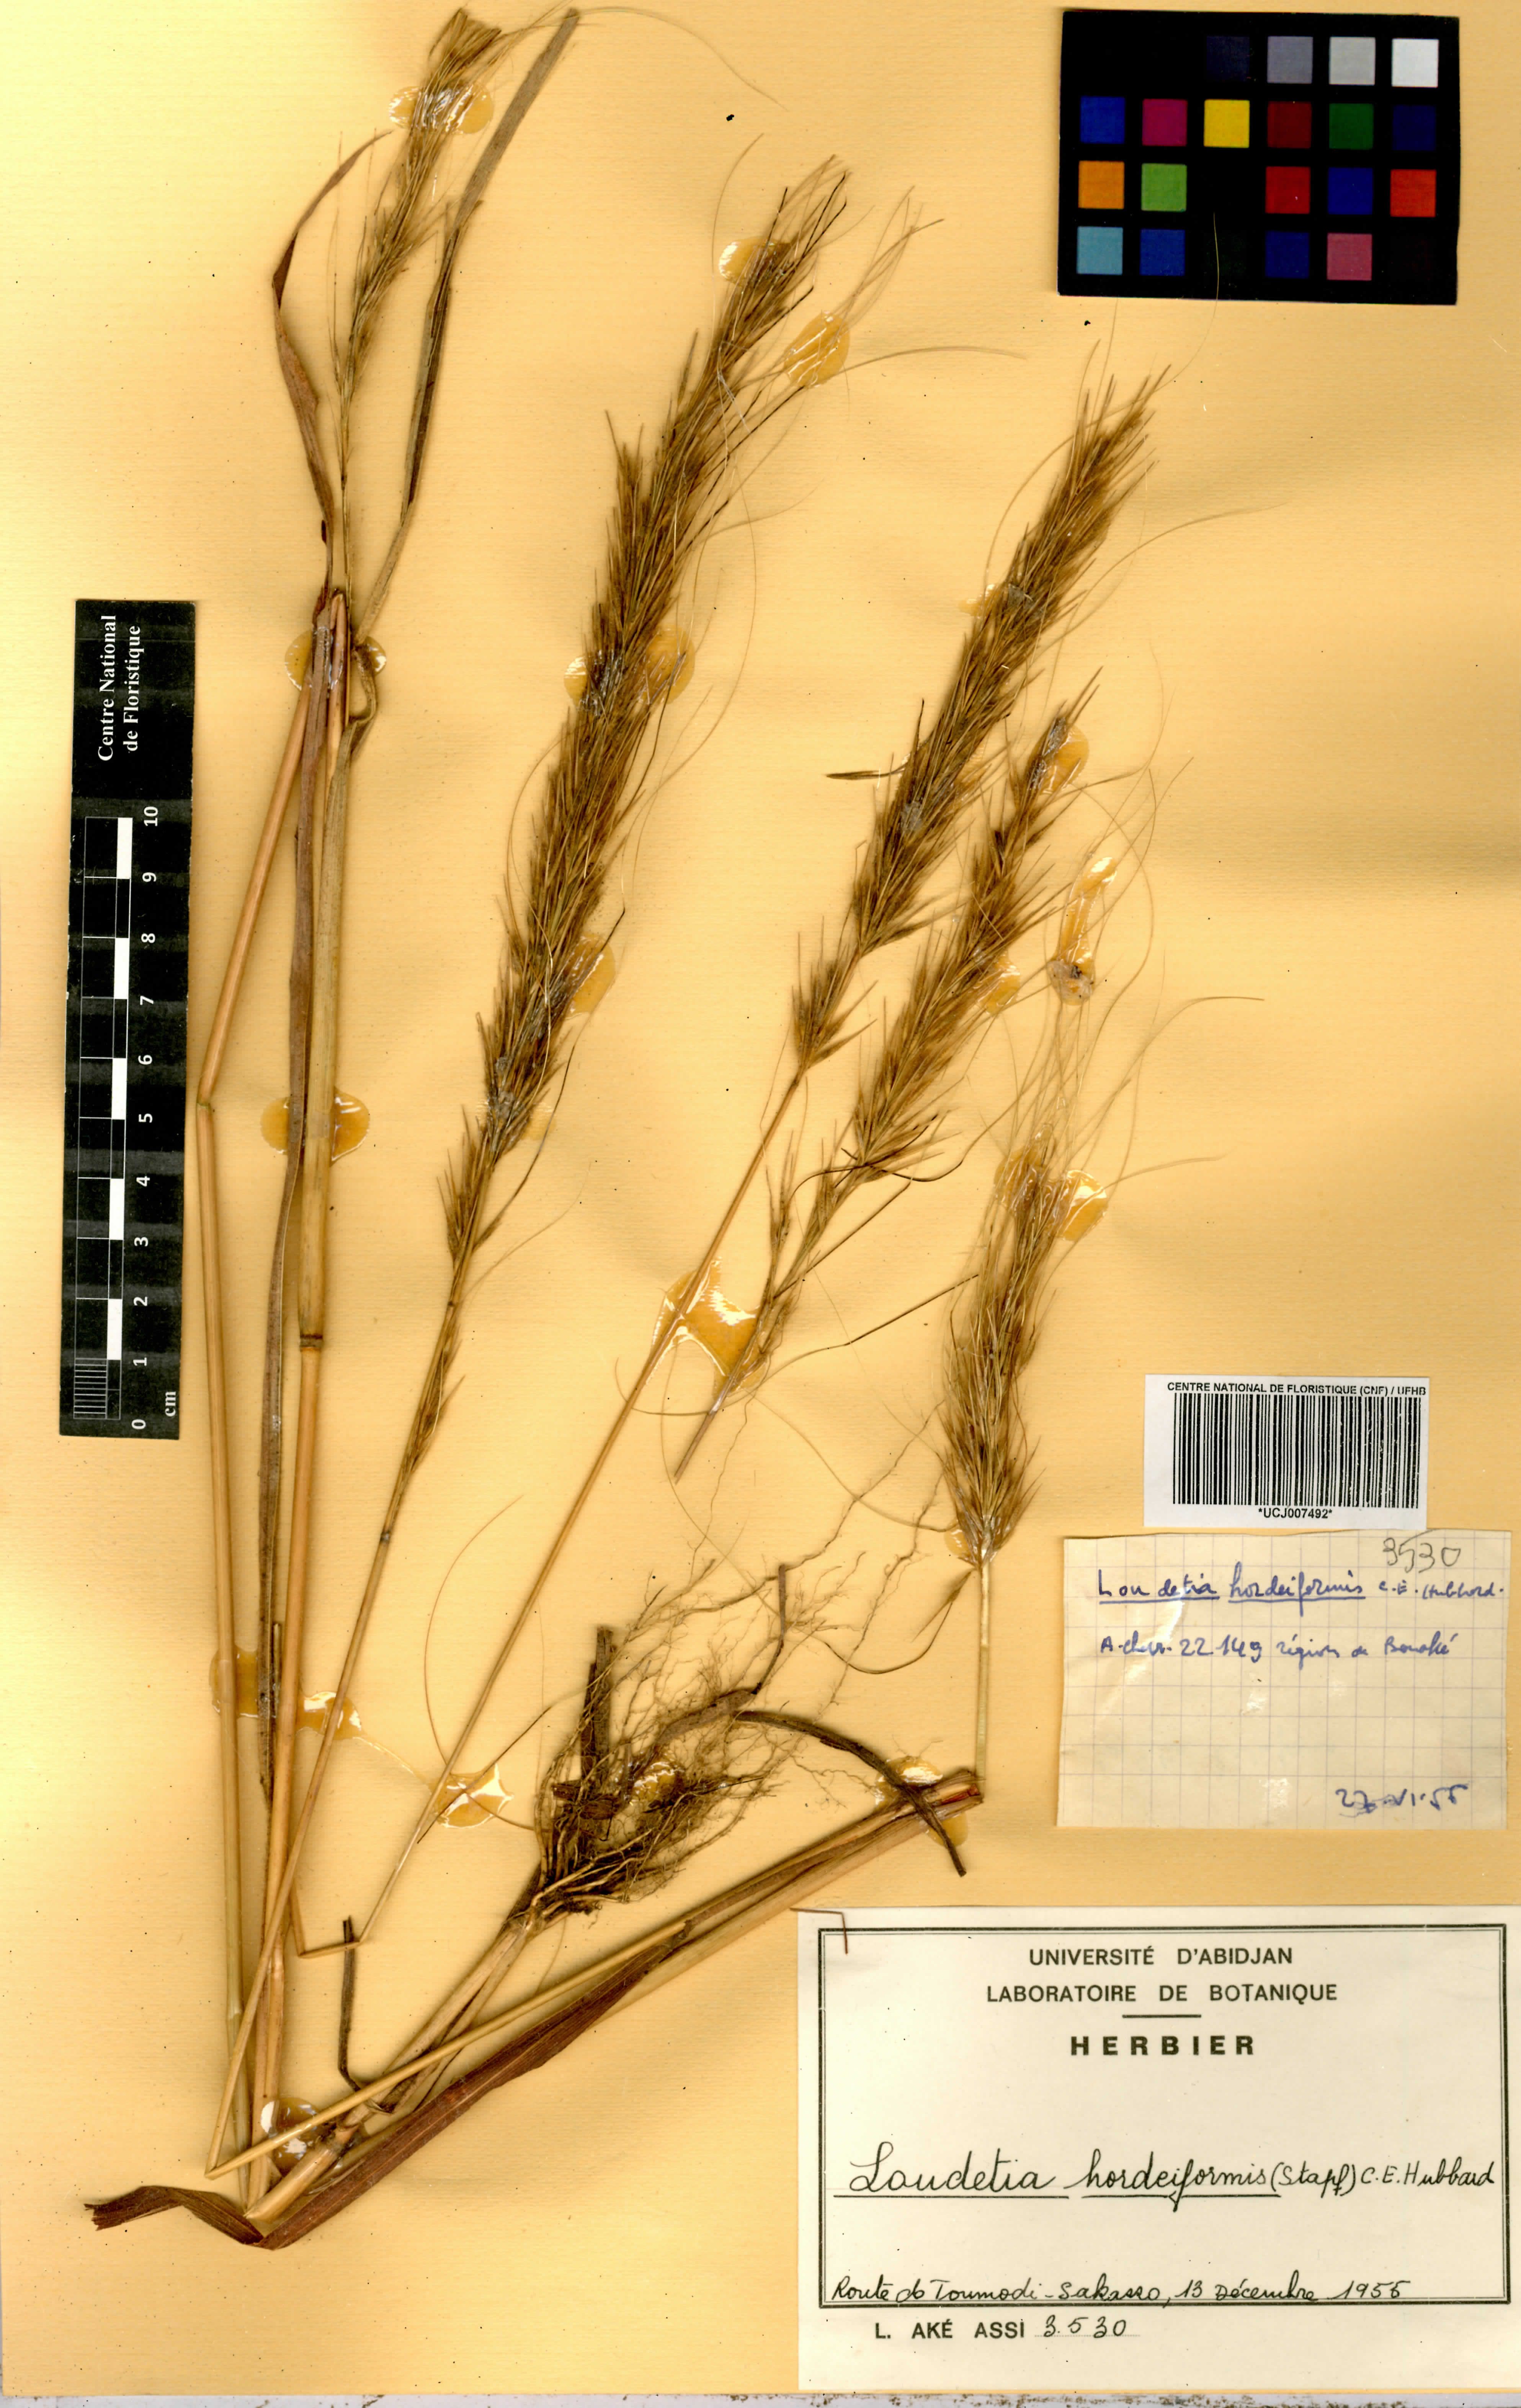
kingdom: Plantae
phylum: Tracheophyta
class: Liliopsida
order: Poales
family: Poaceae
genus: Loudetia
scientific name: Loudetia hordeiformis
